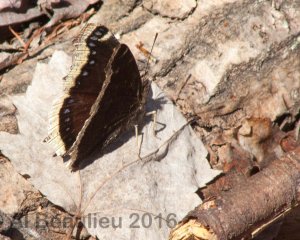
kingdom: Animalia
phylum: Arthropoda
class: Insecta
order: Lepidoptera
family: Nymphalidae
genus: Nymphalis
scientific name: Nymphalis antiopa
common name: Mourning Cloak
